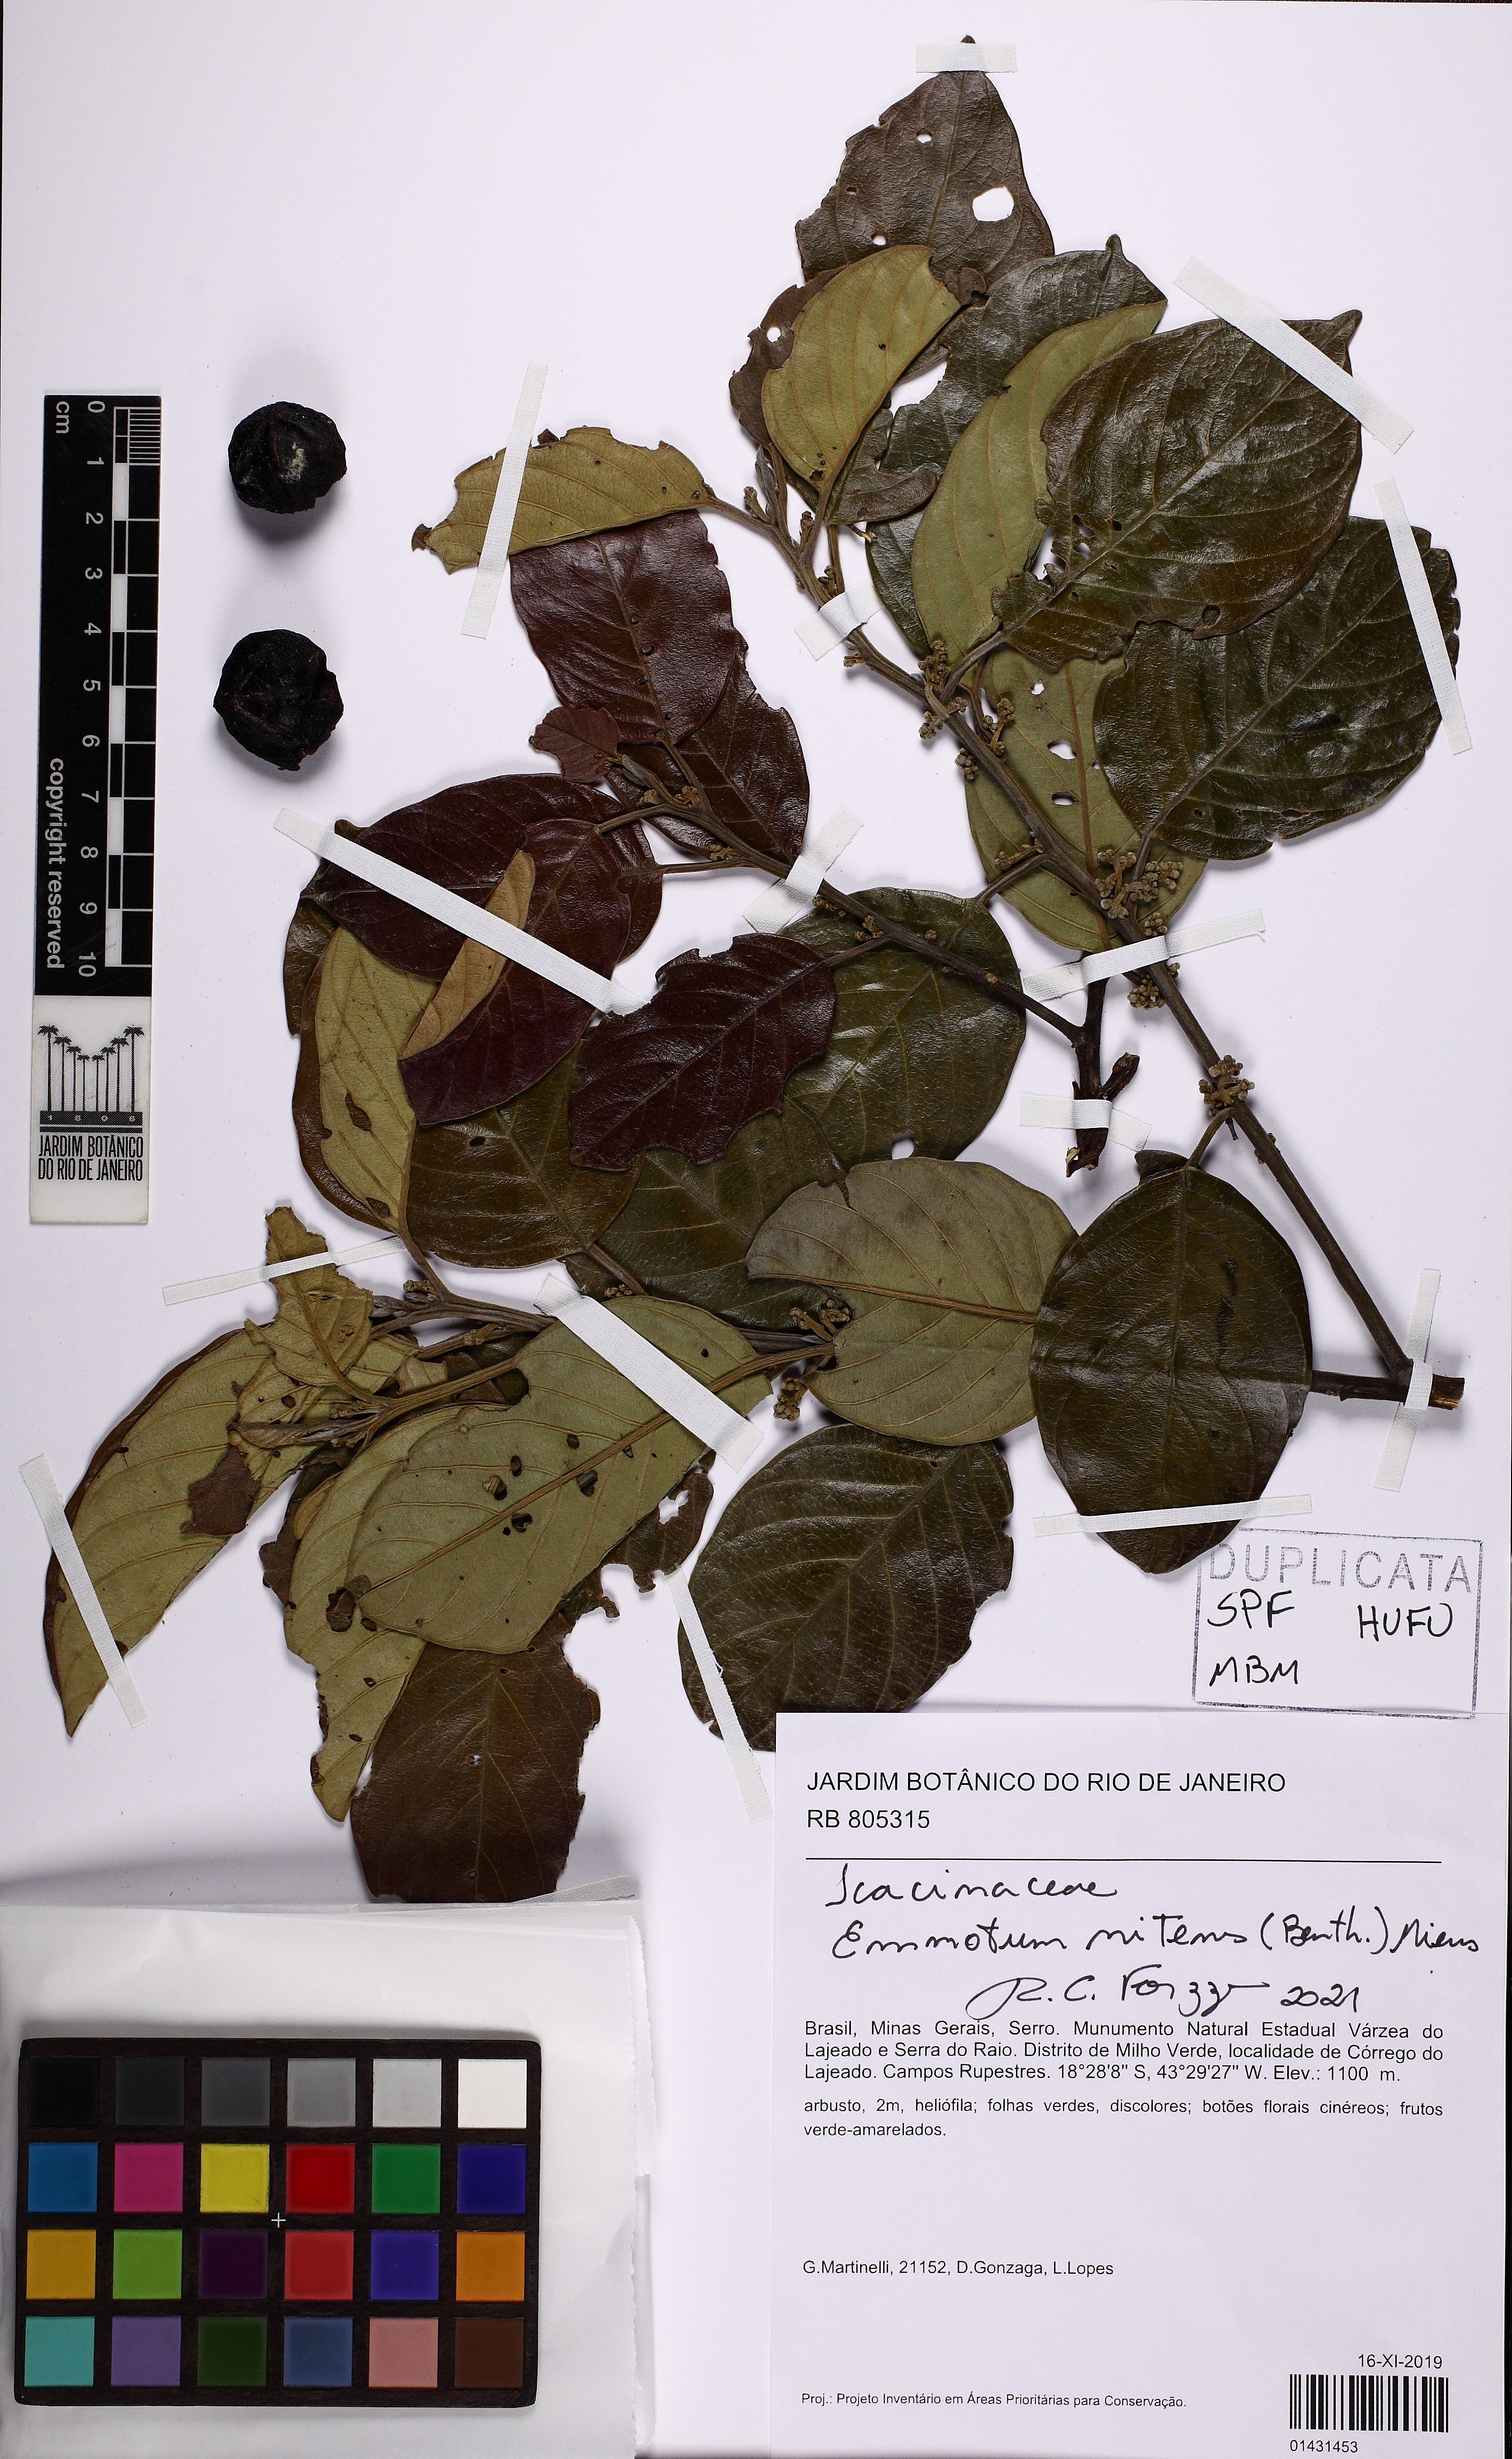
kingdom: Plantae
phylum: Tracheophyta
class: Magnoliopsida
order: Metteniusales
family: Metteniusaceae
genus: Emmotum
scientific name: Emmotum nitens
